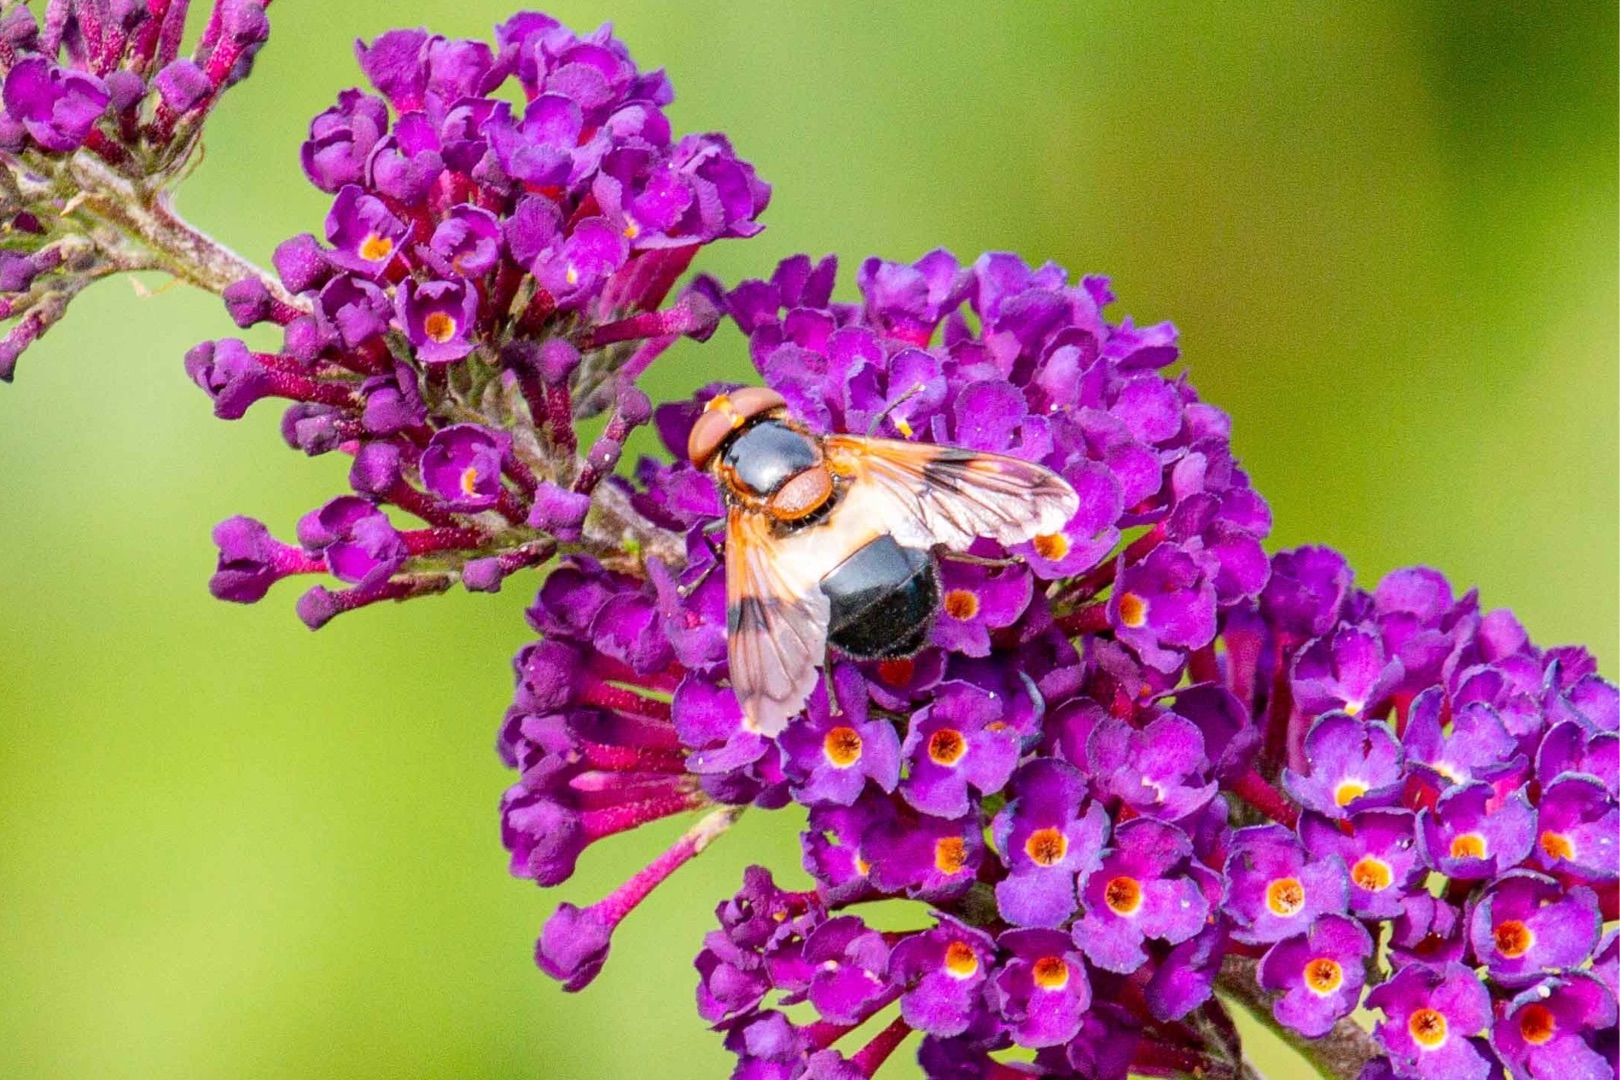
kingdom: Animalia
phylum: Arthropoda
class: Insecta
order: Diptera
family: Syrphidae
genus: Volucella
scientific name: Volucella pellucens
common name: Hvidbåndet humlesvirreflue
